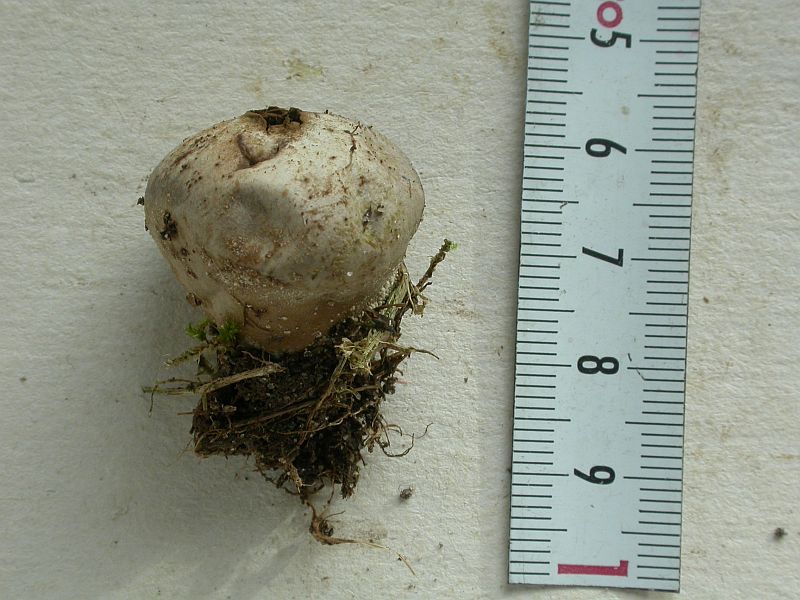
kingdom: Fungi
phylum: Basidiomycota
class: Agaricomycetes
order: Agaricales
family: Lycoperdaceae
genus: Lycoperdon
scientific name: Lycoperdon pratense
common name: flad støvbold
